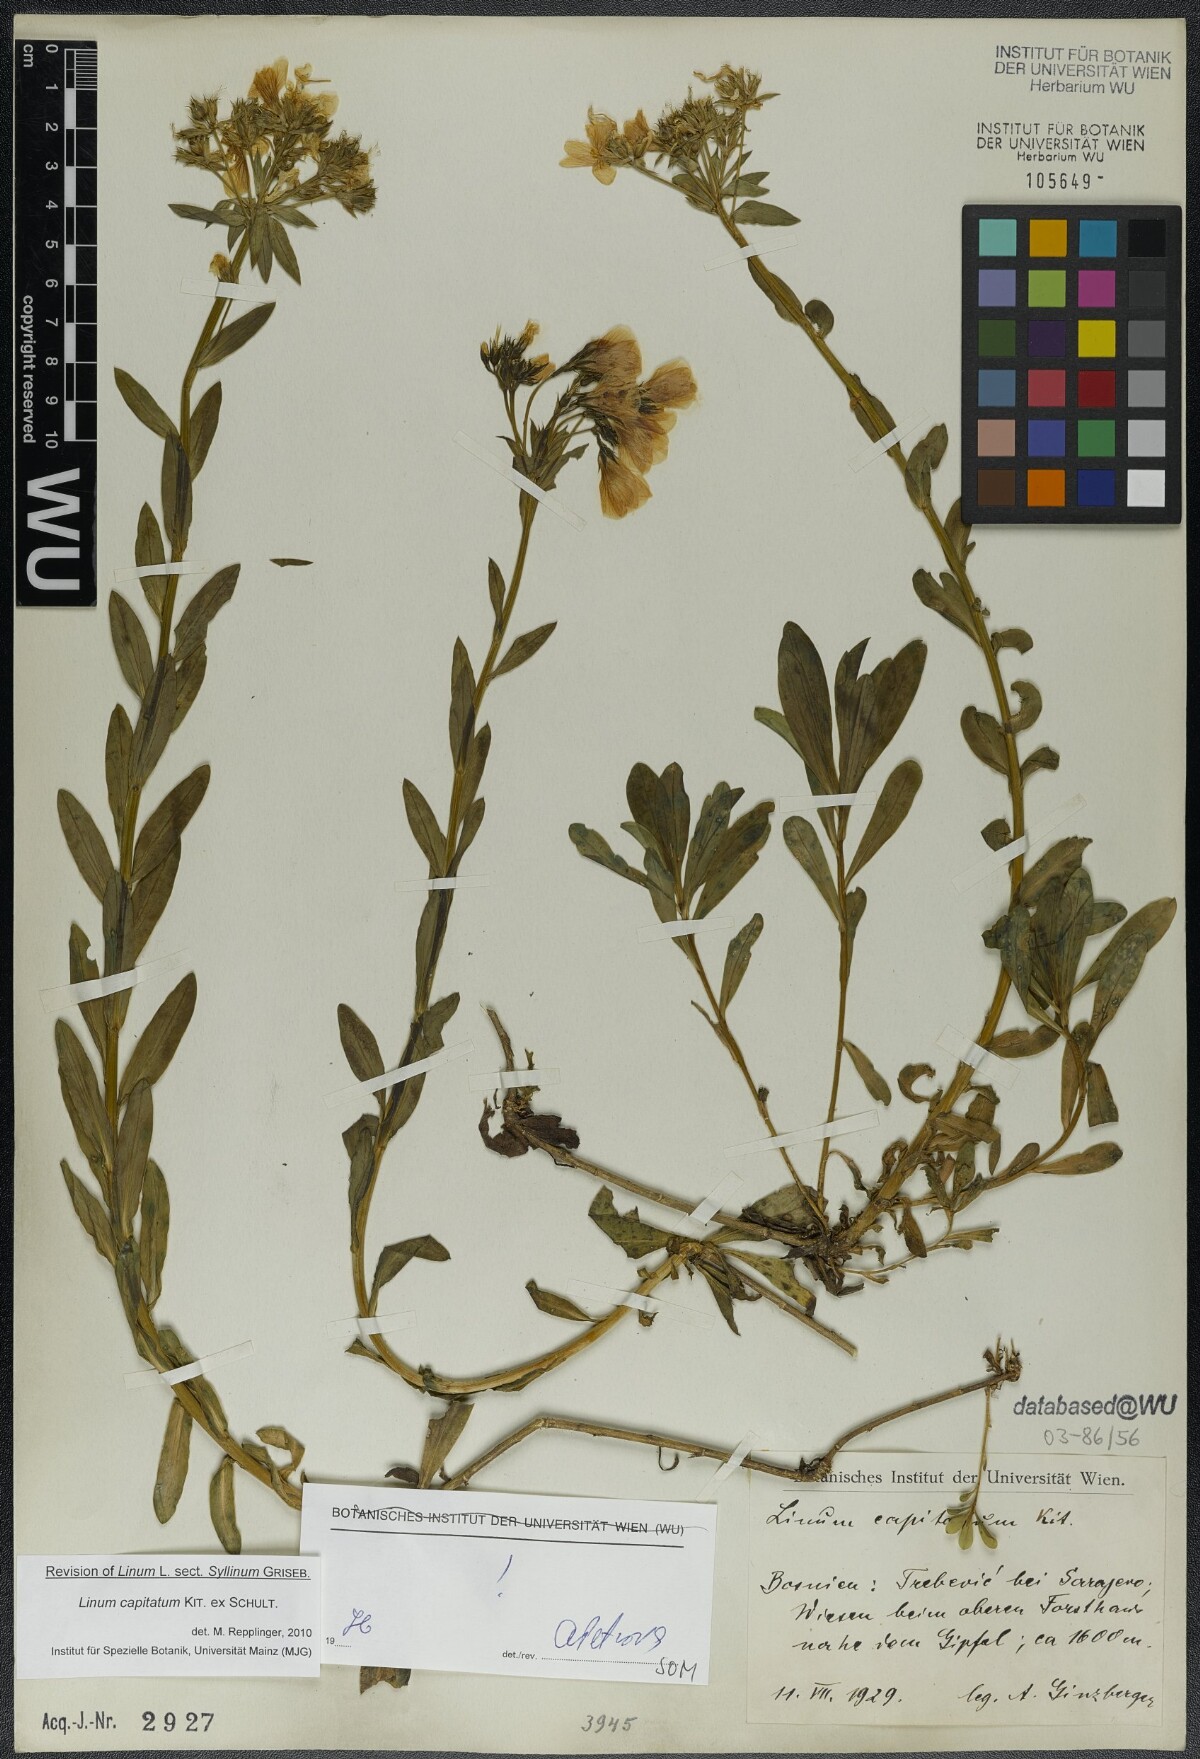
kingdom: Plantae
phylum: Tracheophyta
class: Magnoliopsida
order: Malpighiales
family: Linaceae
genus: Linum
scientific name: Linum capitatum
